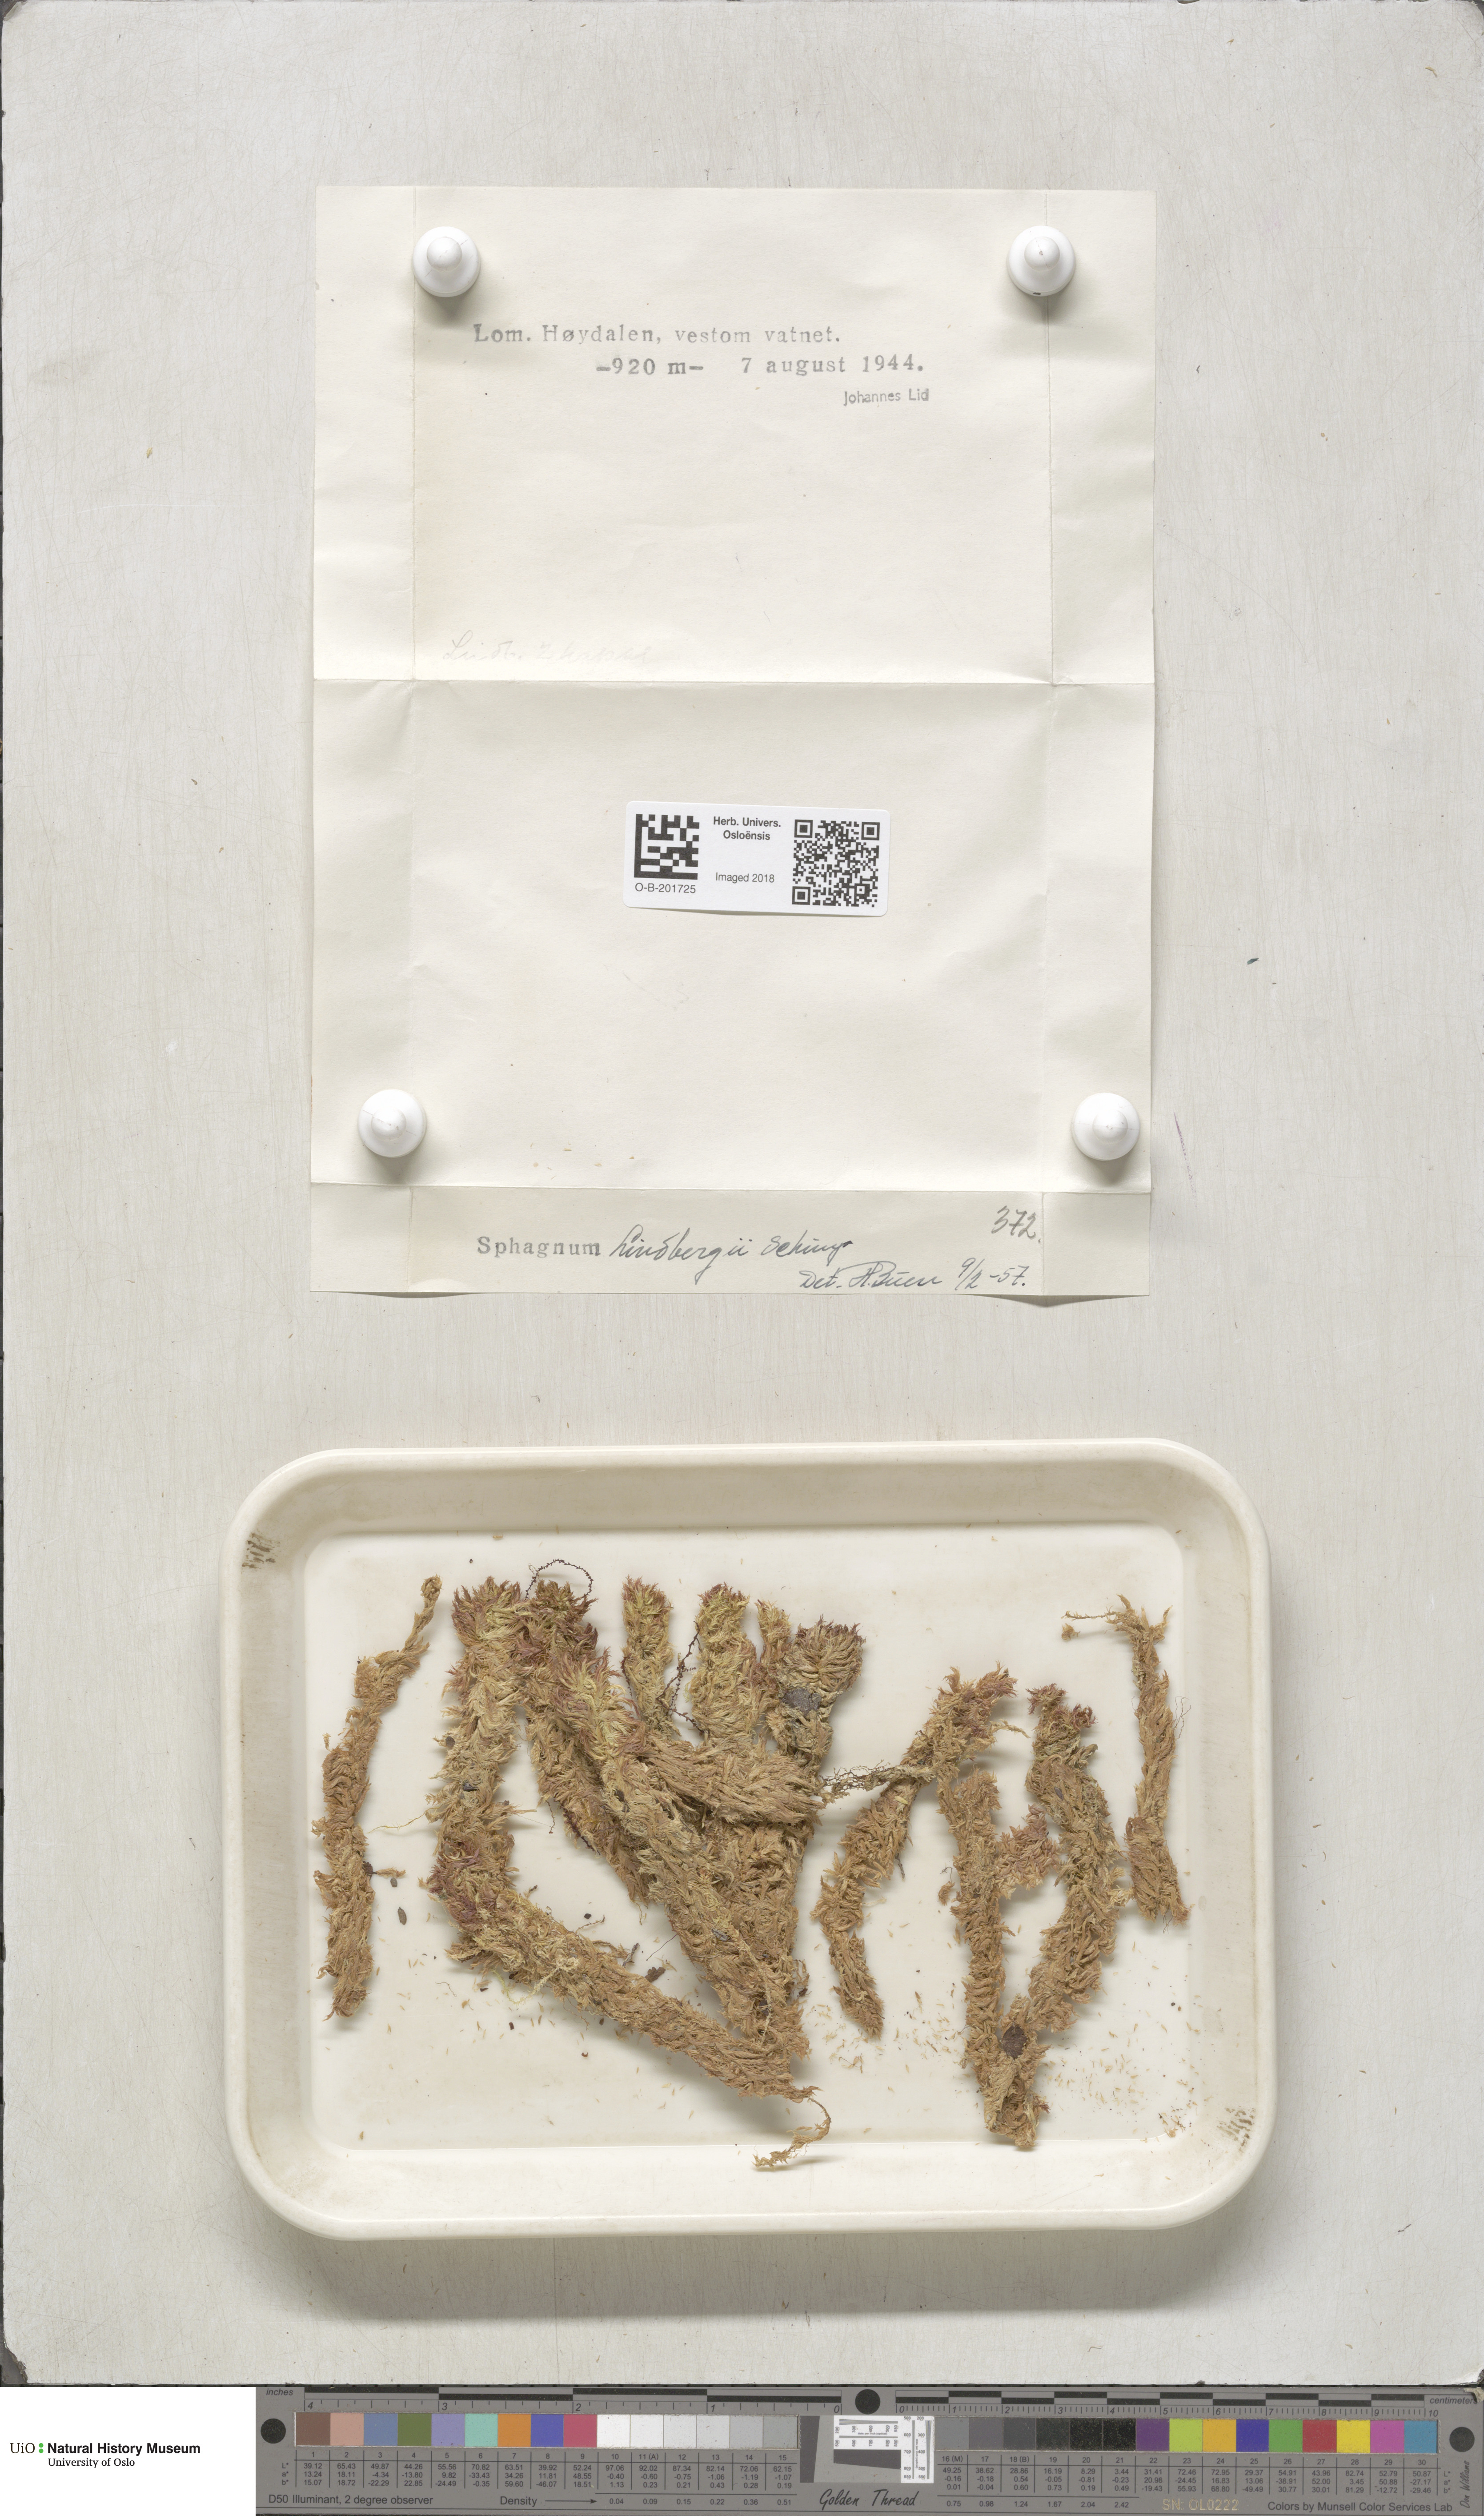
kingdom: Plantae
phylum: Bryophyta
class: Sphagnopsida
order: Sphagnales
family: Sphagnaceae
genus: Sphagnum
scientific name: Sphagnum lindbergii
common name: Lindberg's peat moss
